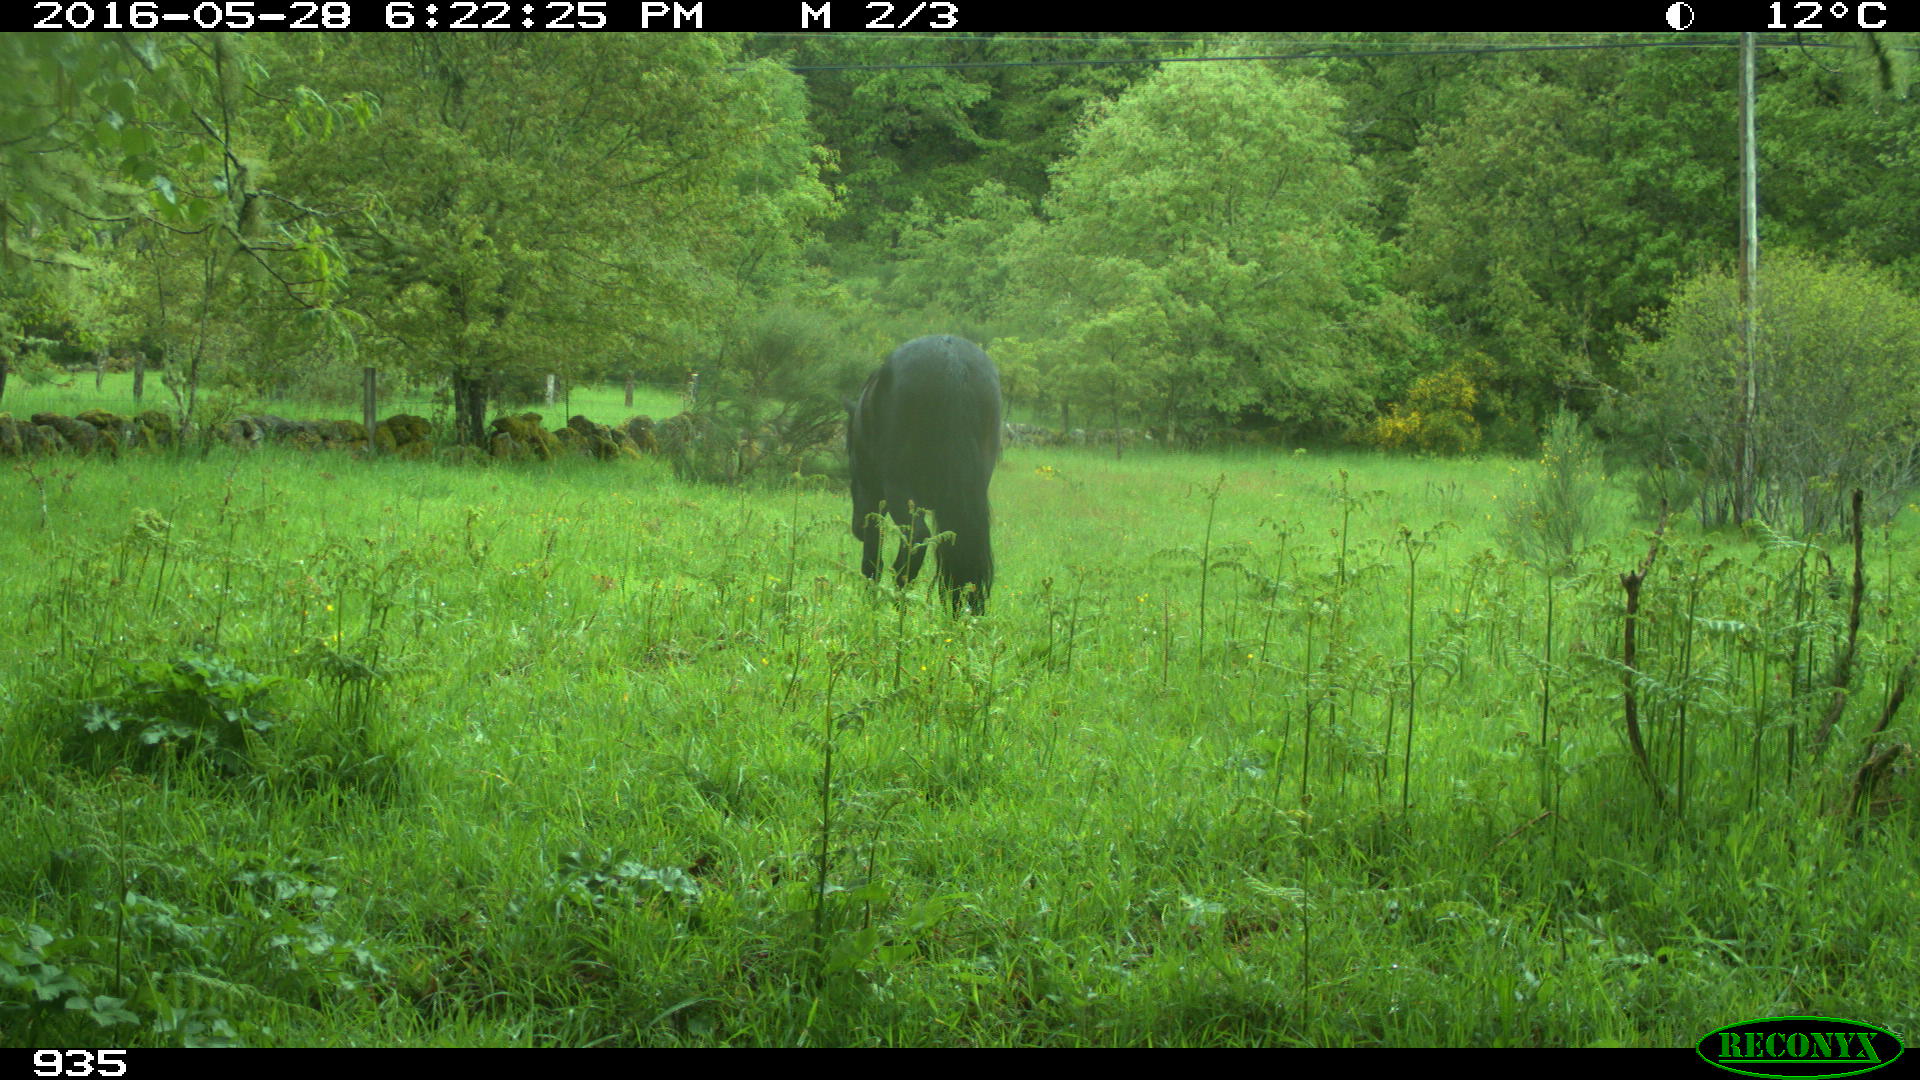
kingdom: Animalia
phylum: Chordata
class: Mammalia
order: Perissodactyla
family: Equidae
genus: Equus
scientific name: Equus caballus
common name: Horse
